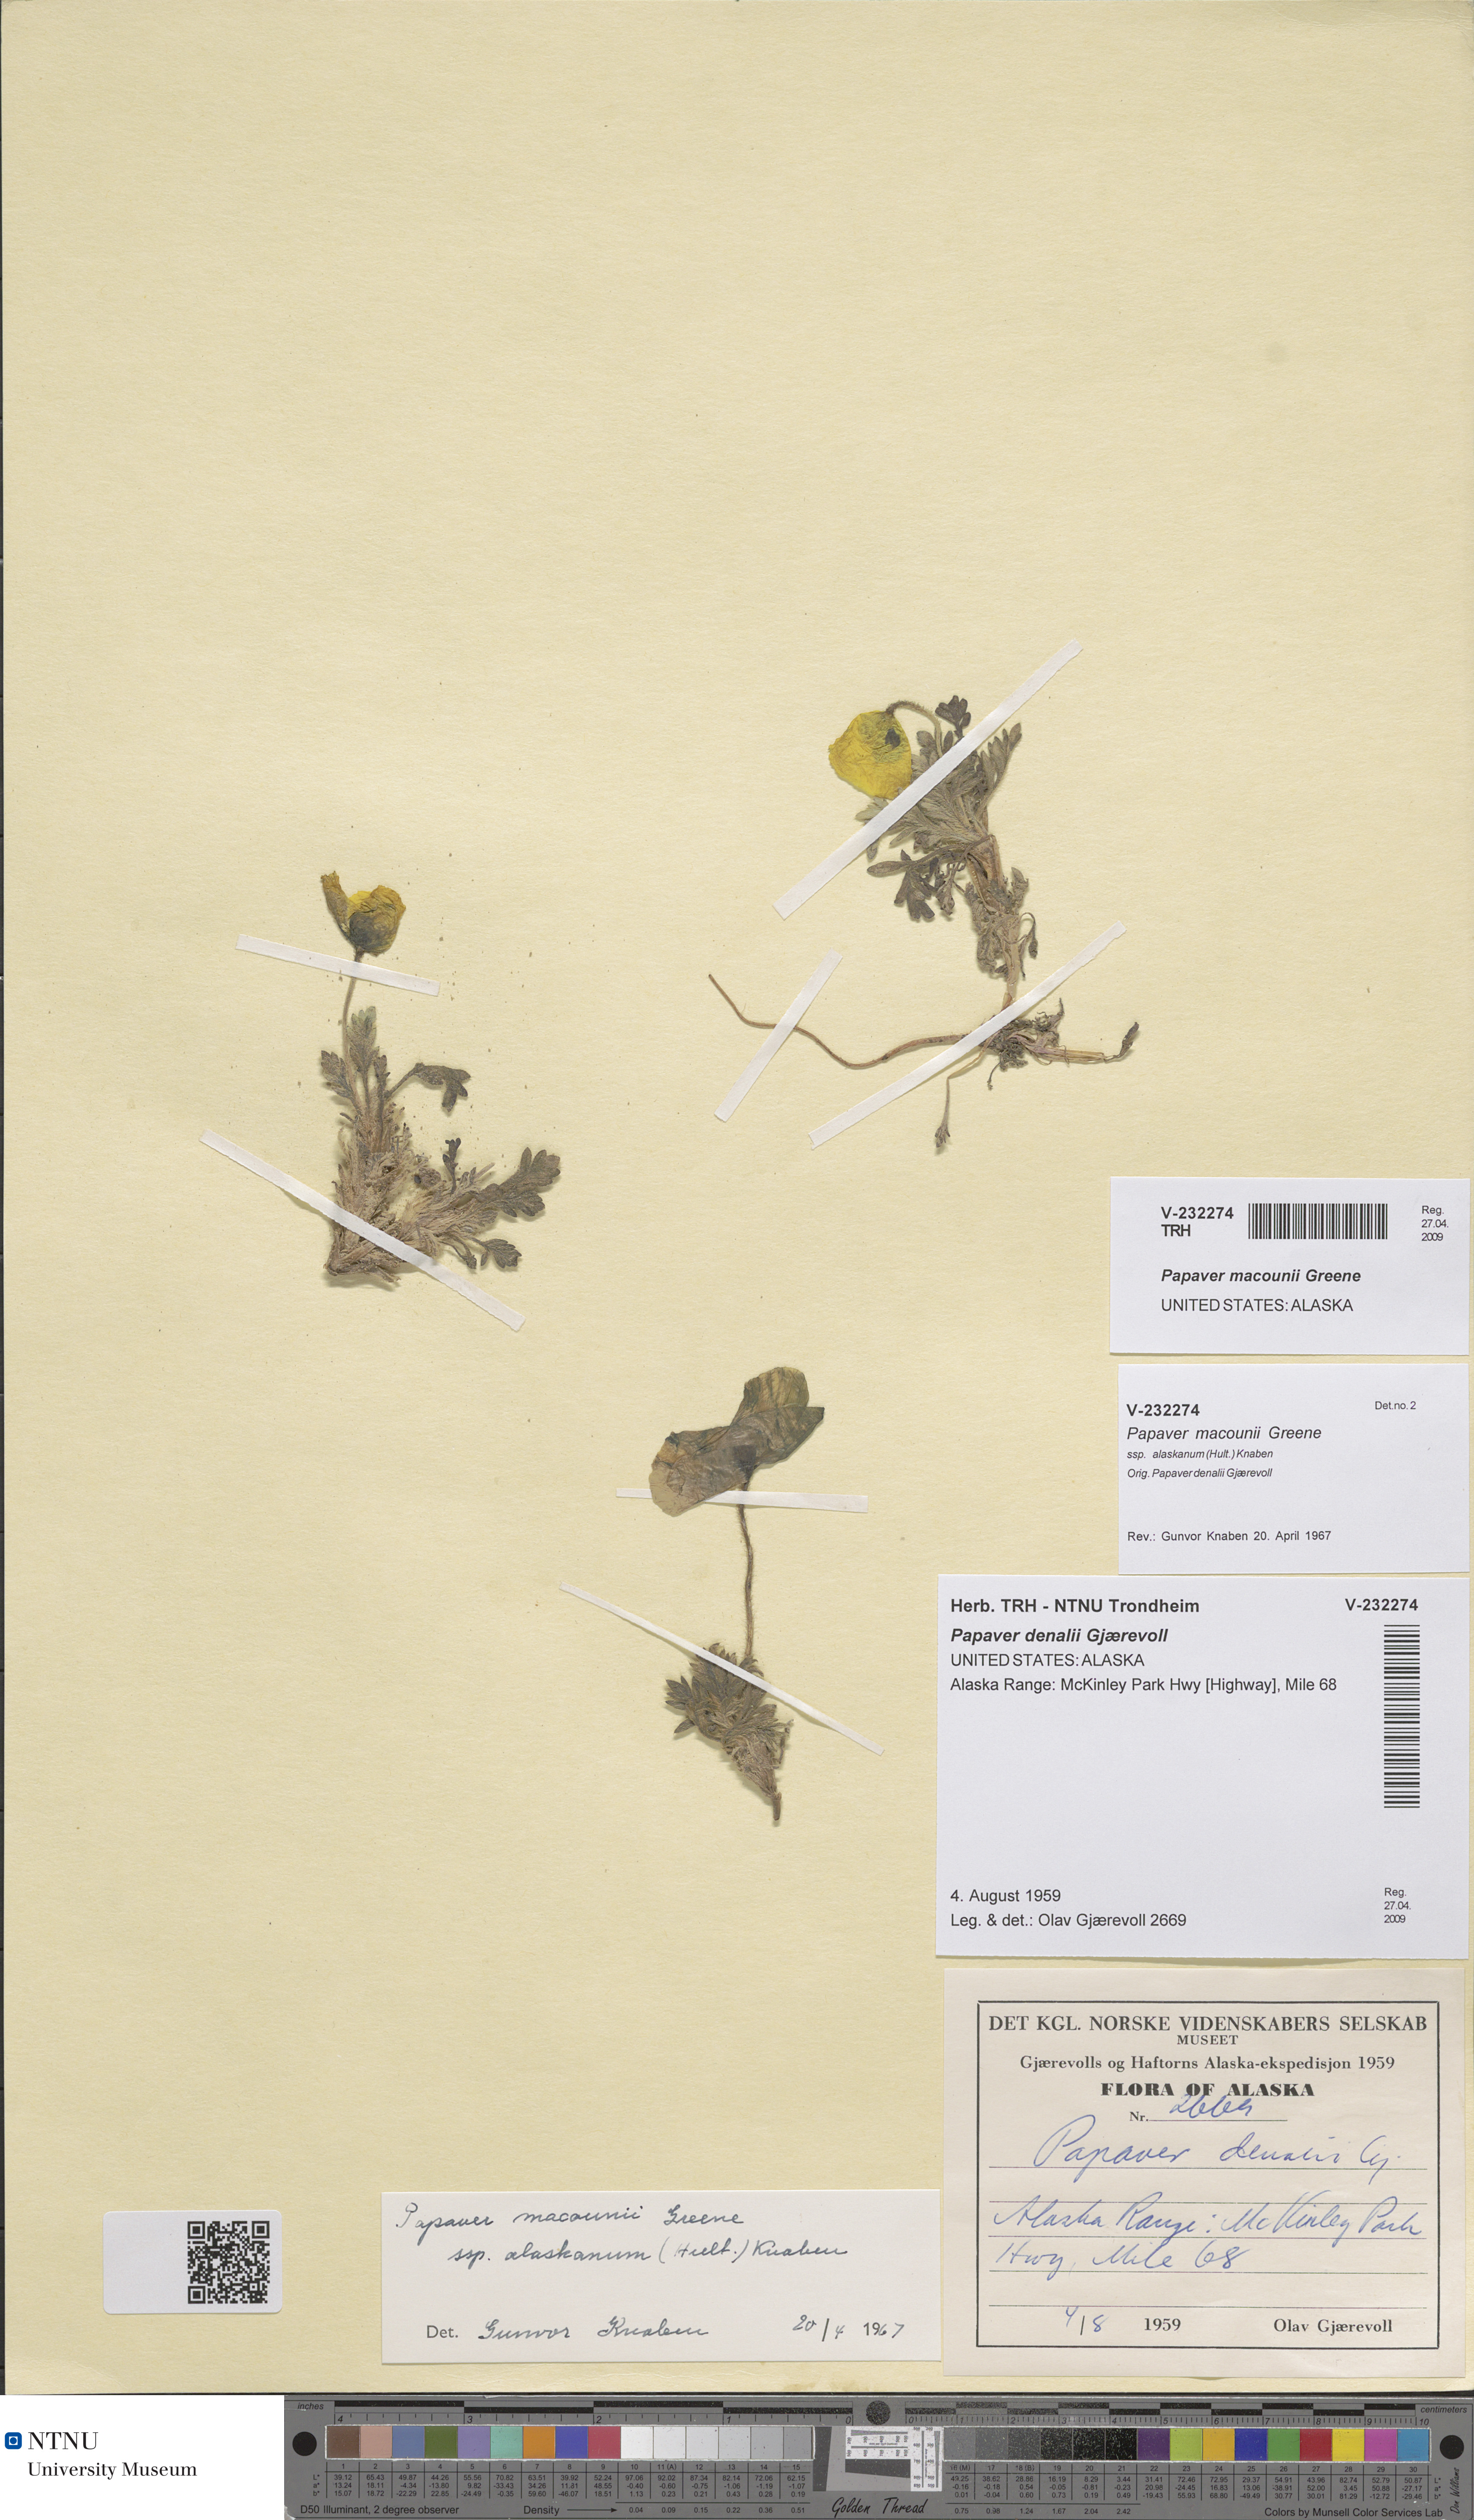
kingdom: Plantae
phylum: Tracheophyta
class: Magnoliopsida
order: Ranunculales
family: Papaveraceae
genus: Papaver
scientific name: Papaver macounii
